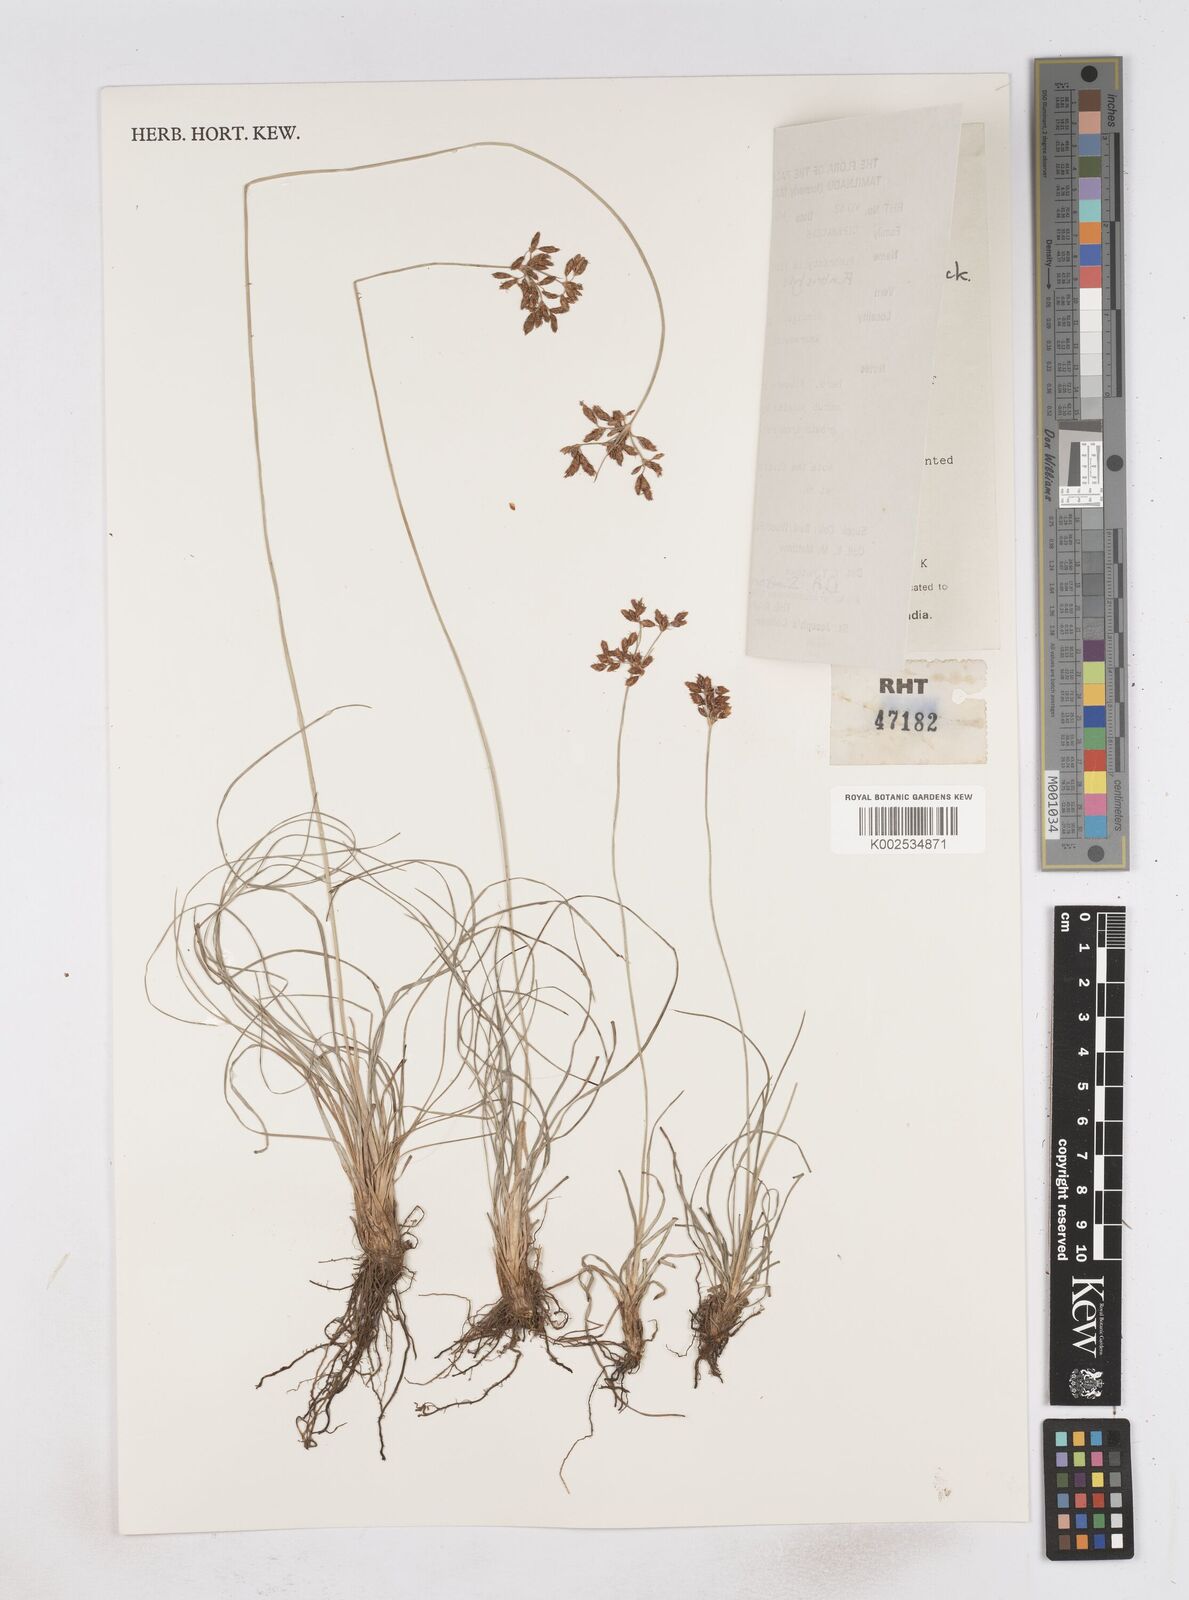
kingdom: Plantae
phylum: Tracheophyta
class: Liliopsida
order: Poales
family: Cyperaceae
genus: Fimbristylis
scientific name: Fimbristylis paupercula
